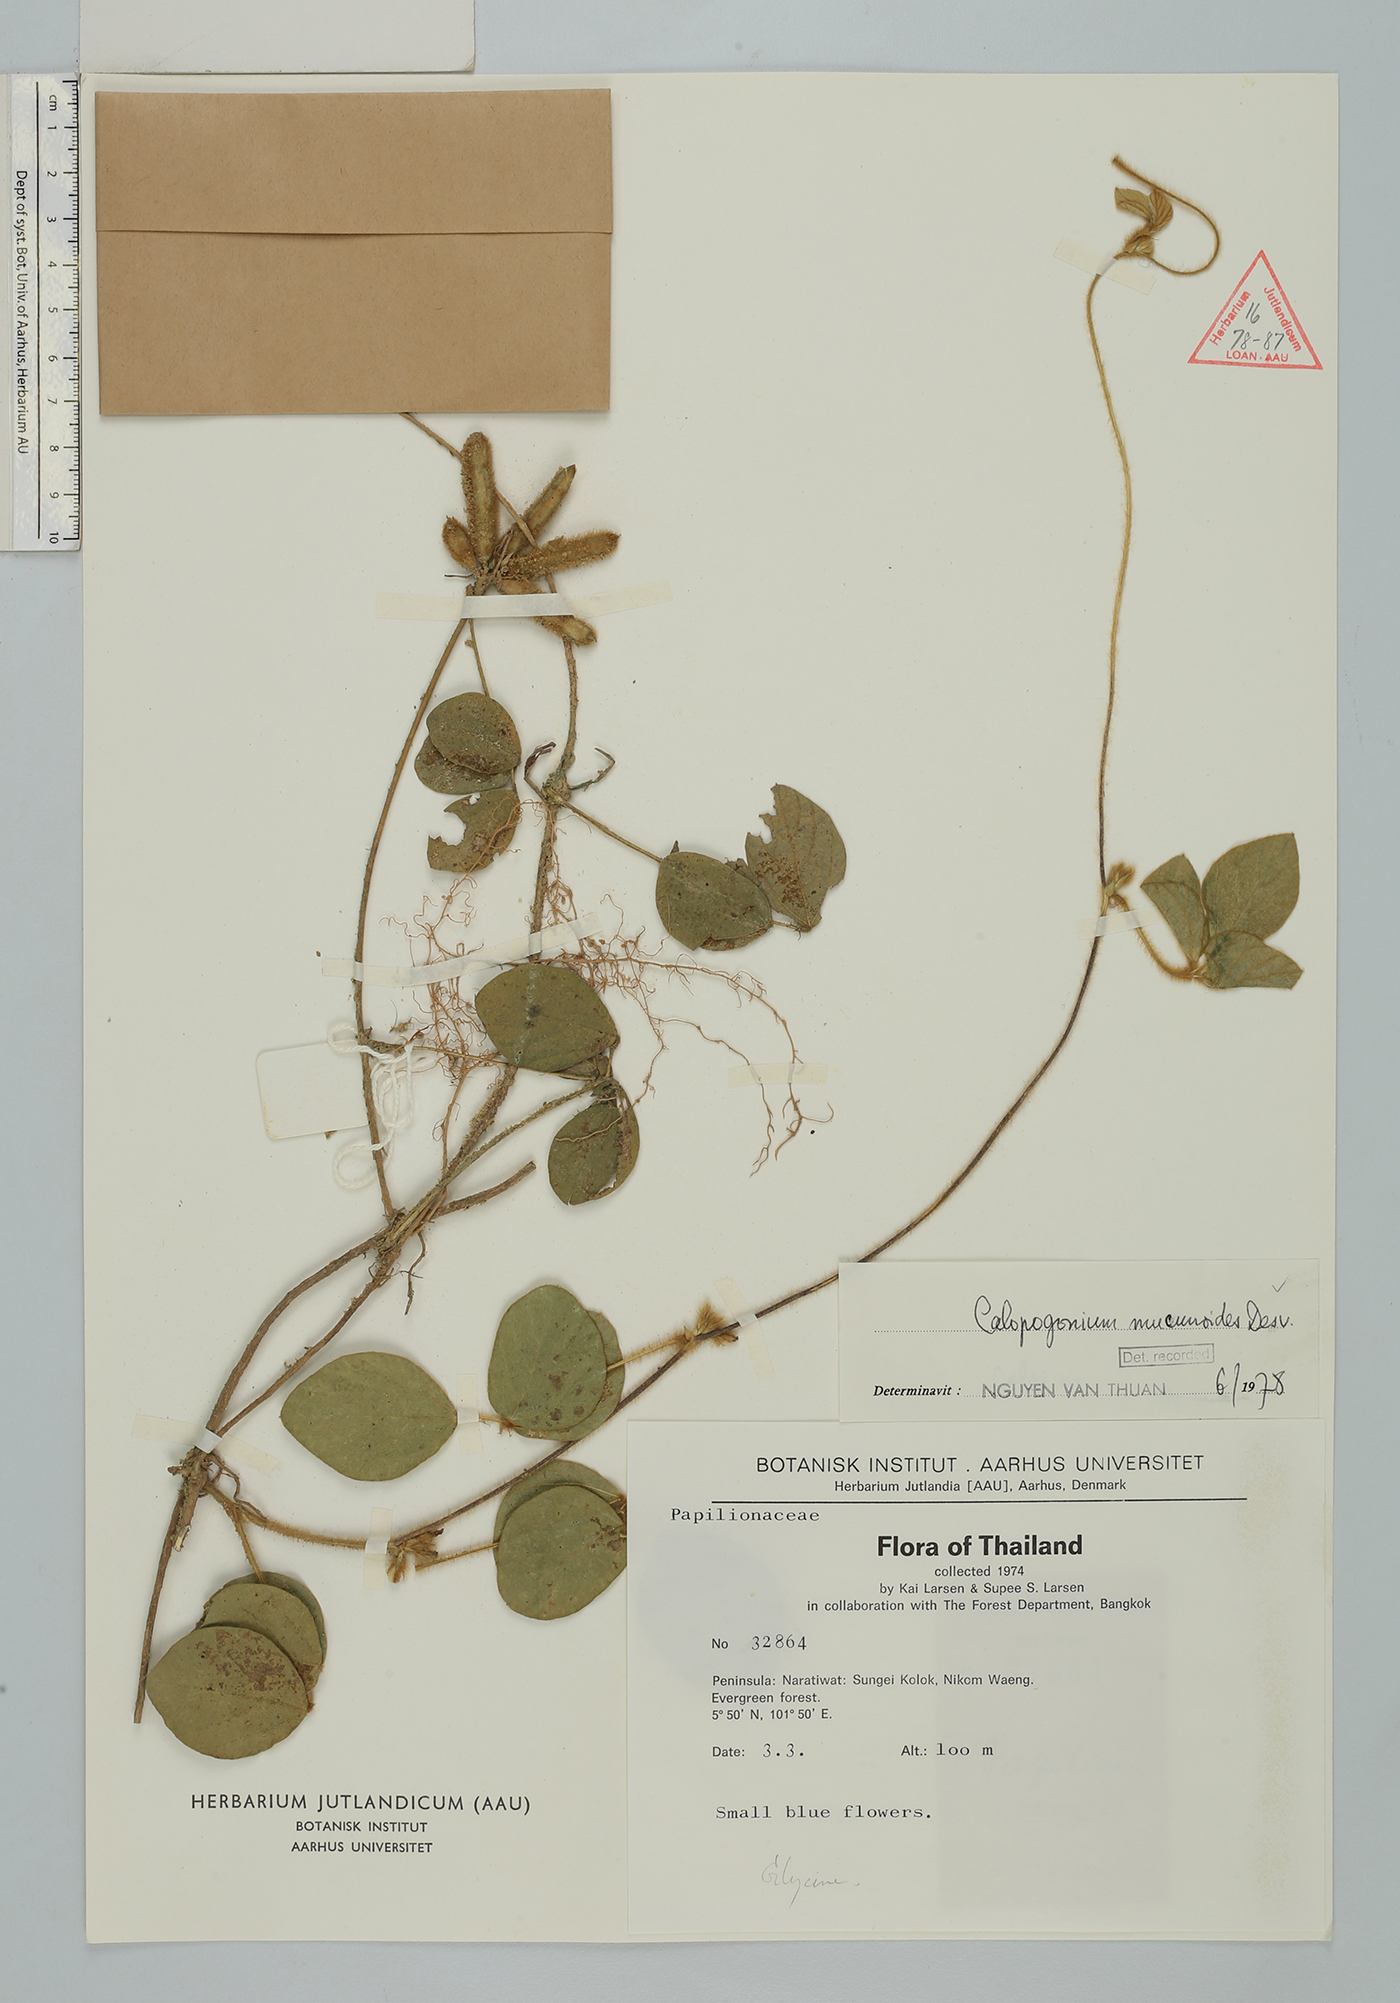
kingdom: Plantae
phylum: Tracheophyta
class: Magnoliopsida
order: Fabales
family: Fabaceae
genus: Calopogonium
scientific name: Calopogonium mucunoides
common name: Calopo
